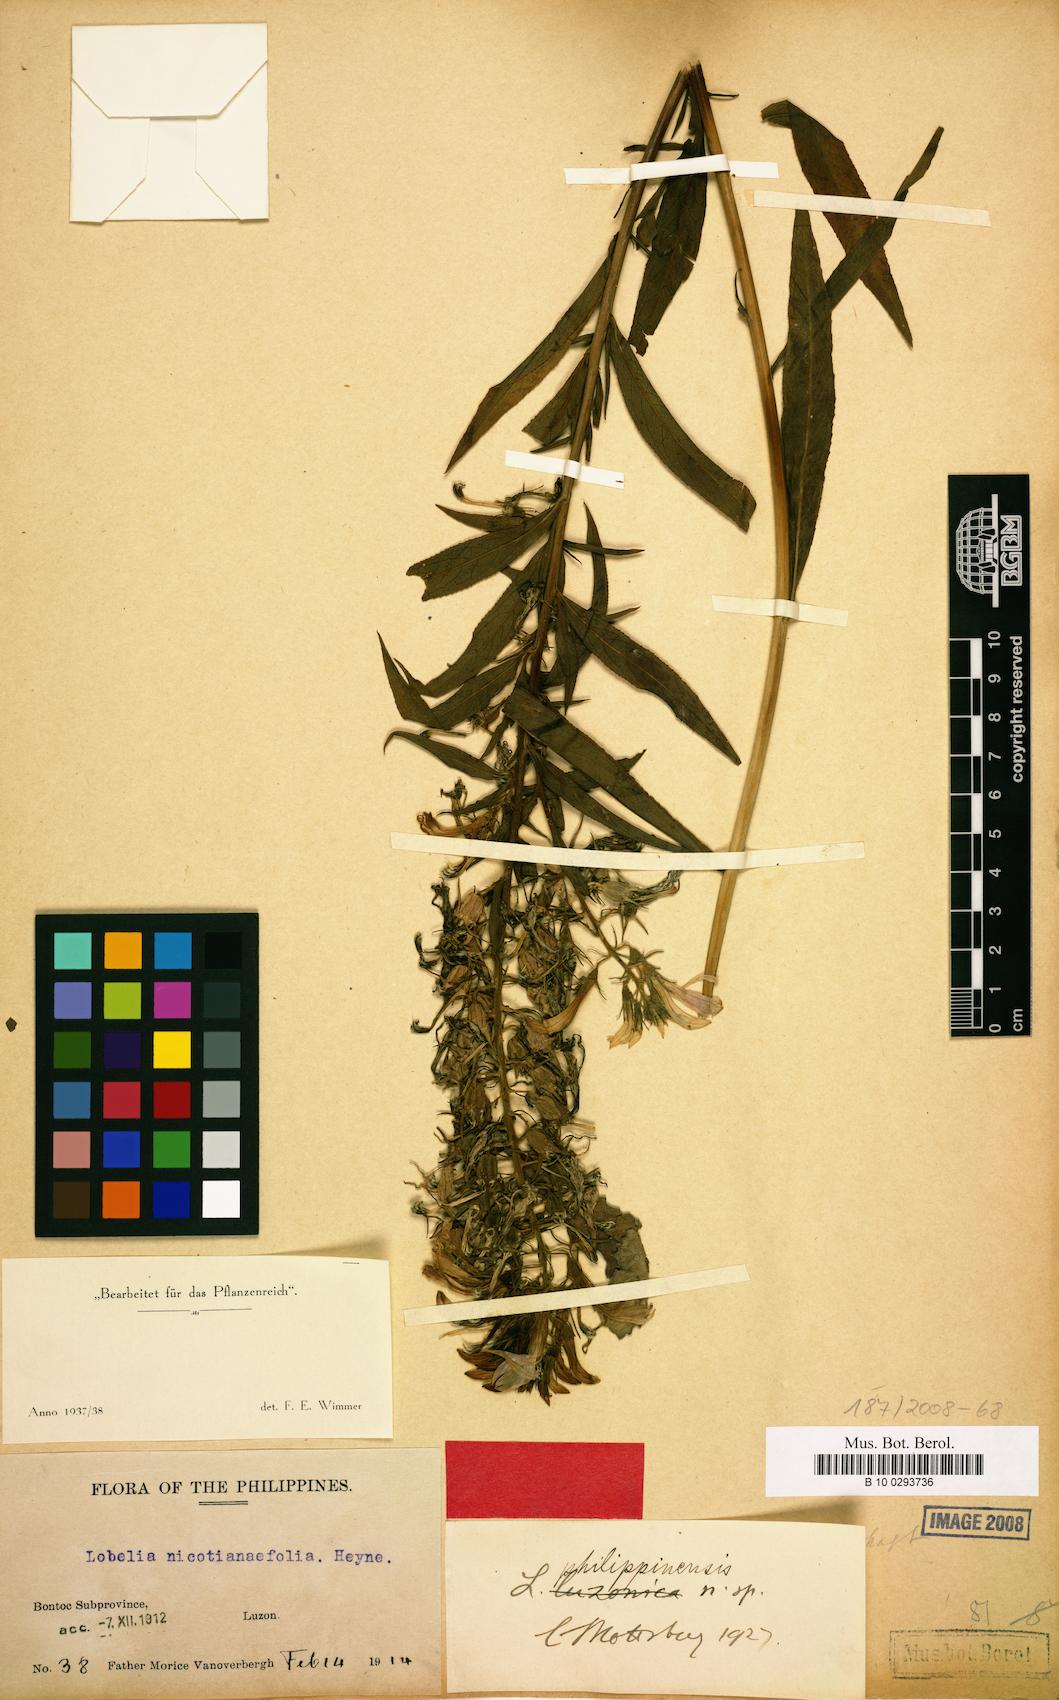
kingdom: Plantae
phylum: Tracheophyta
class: Magnoliopsida
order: Asterales
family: Campanulaceae
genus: Lobelia
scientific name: Lobelia philippinensis
